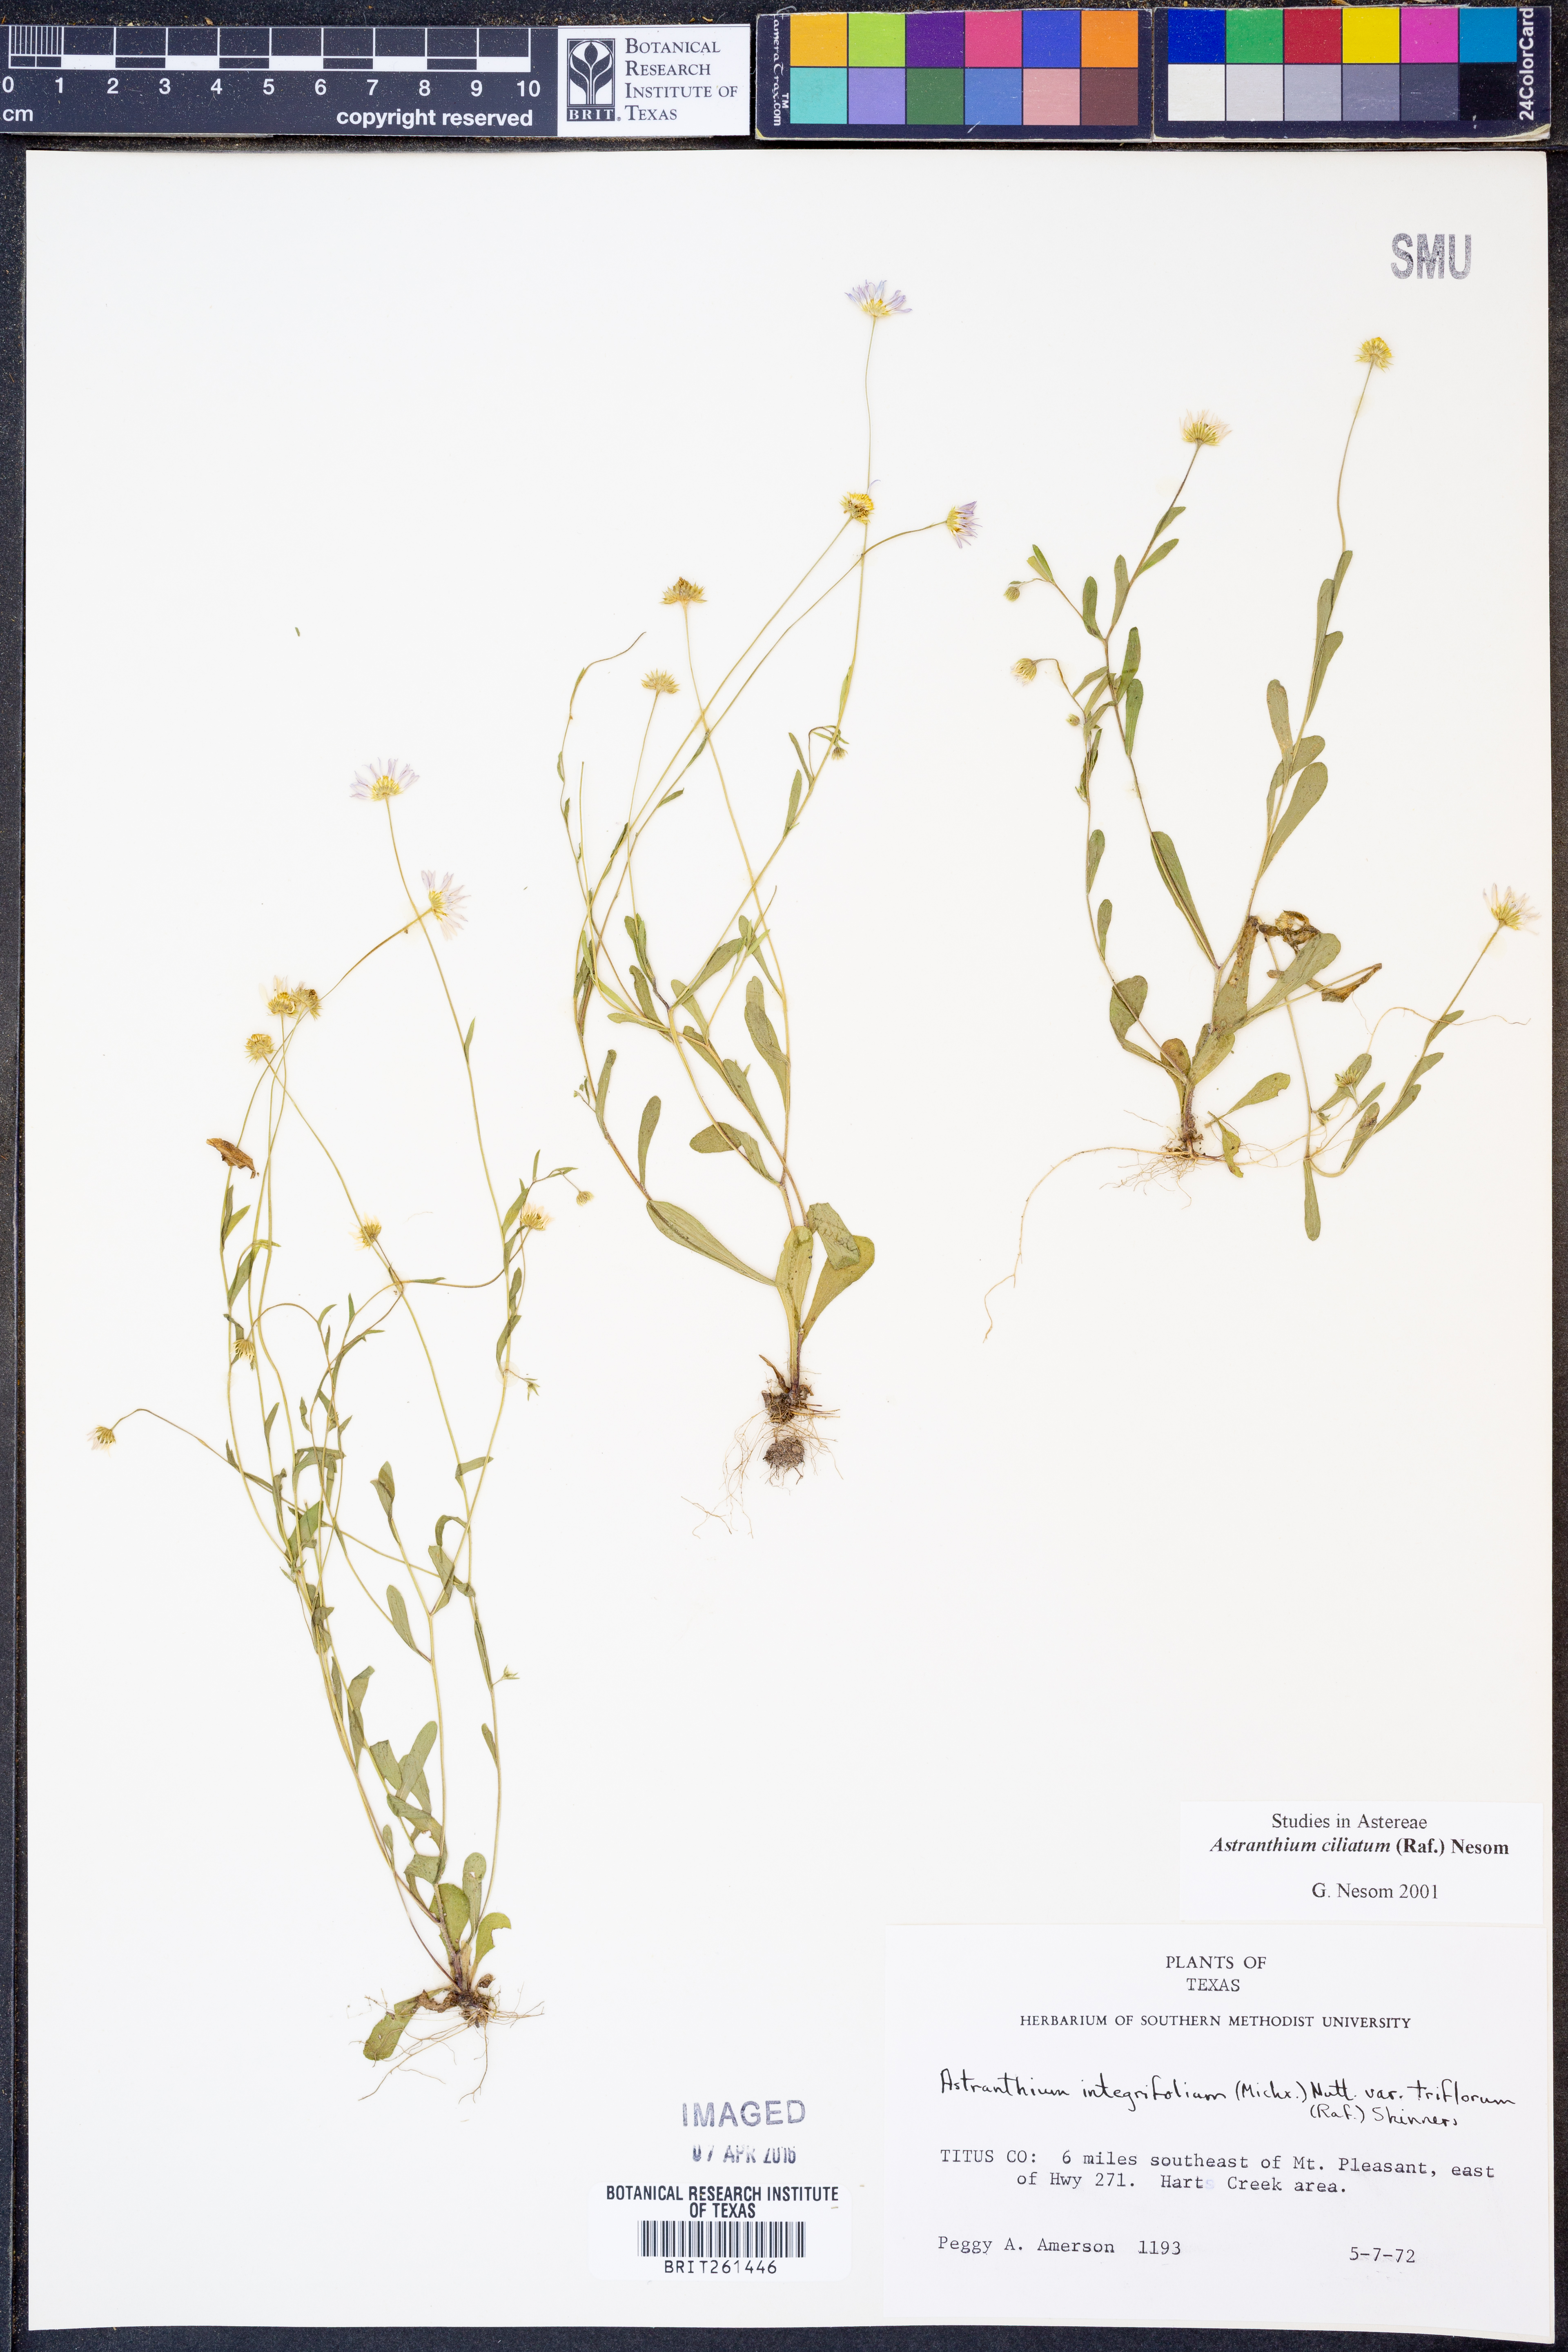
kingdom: Plantae
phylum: Tracheophyta
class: Magnoliopsida
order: Asterales
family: Asteraceae
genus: Astranthium
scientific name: Astranthium ciliatum
